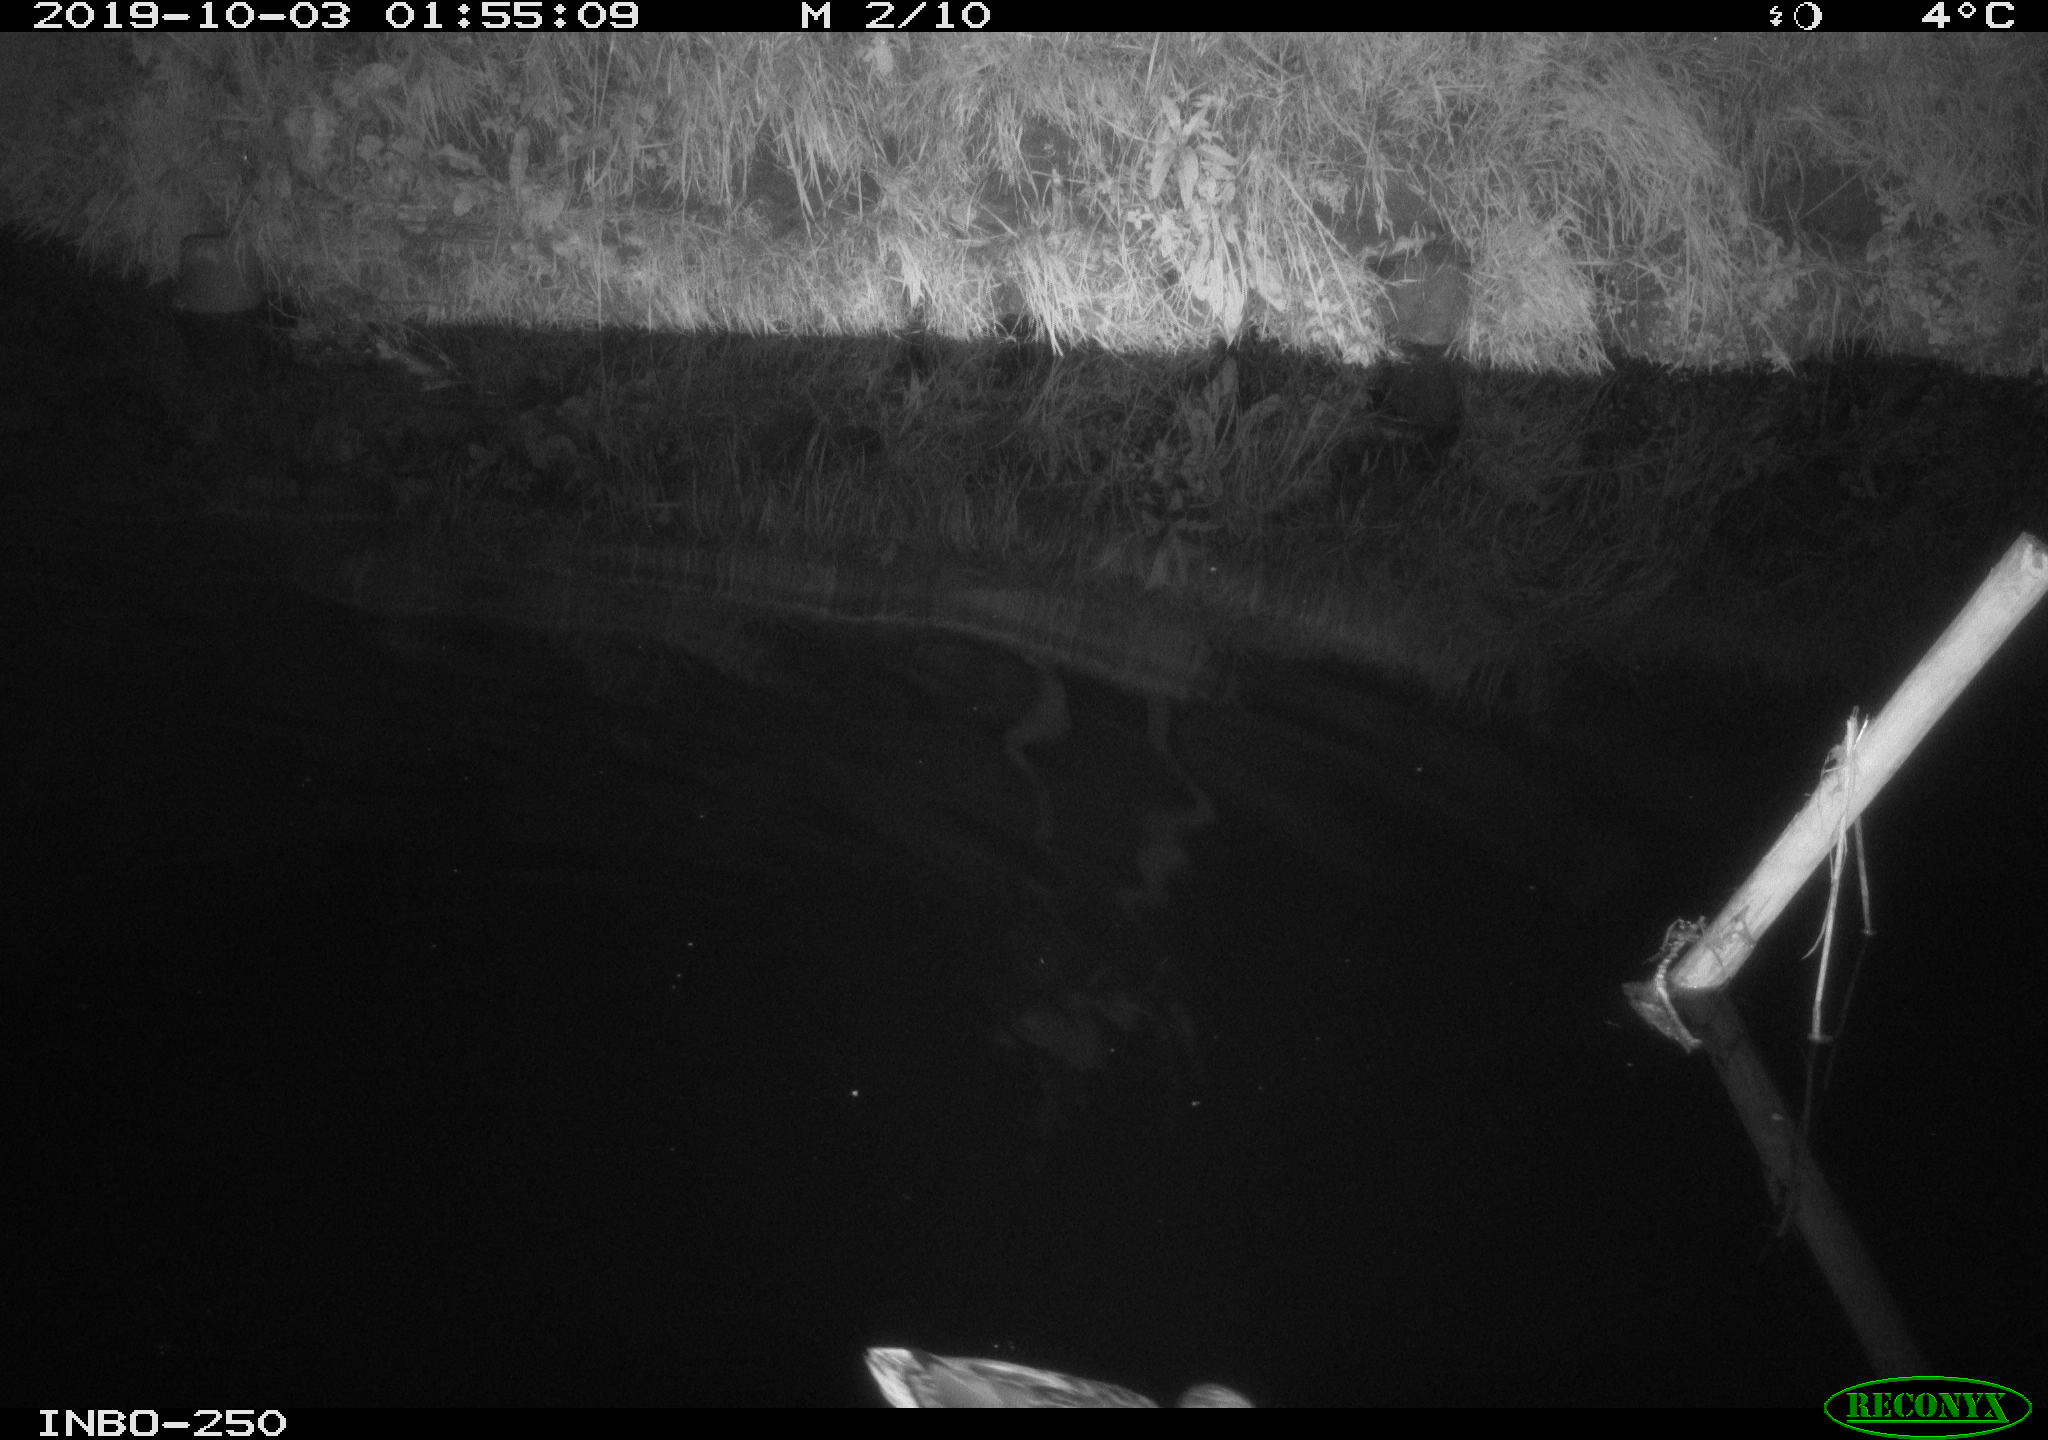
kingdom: Animalia
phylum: Chordata
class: Aves
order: Anseriformes
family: Anatidae
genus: Anas
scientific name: Anas platyrhynchos
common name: Mallard
